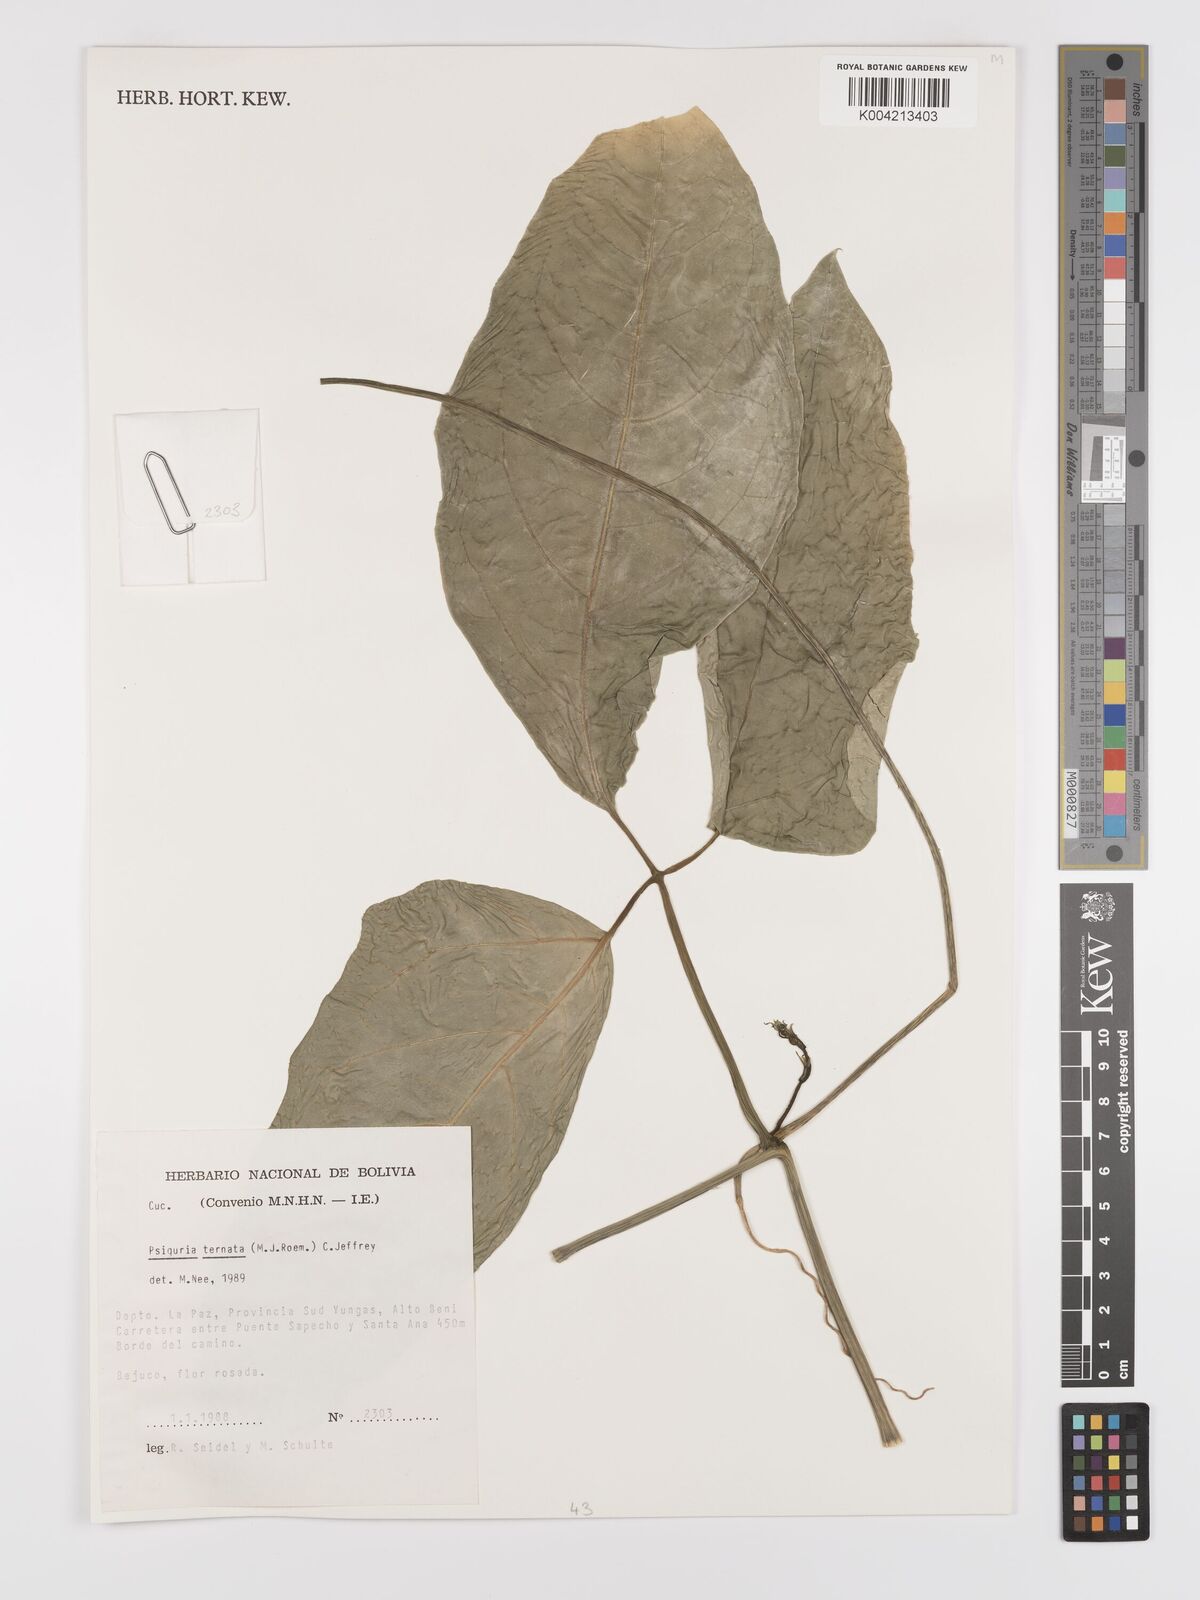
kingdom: Plantae
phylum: Tracheophyta
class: Magnoliopsida
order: Cucurbitales
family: Cucurbitaceae
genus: Psiguria
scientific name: Psiguria ternata
